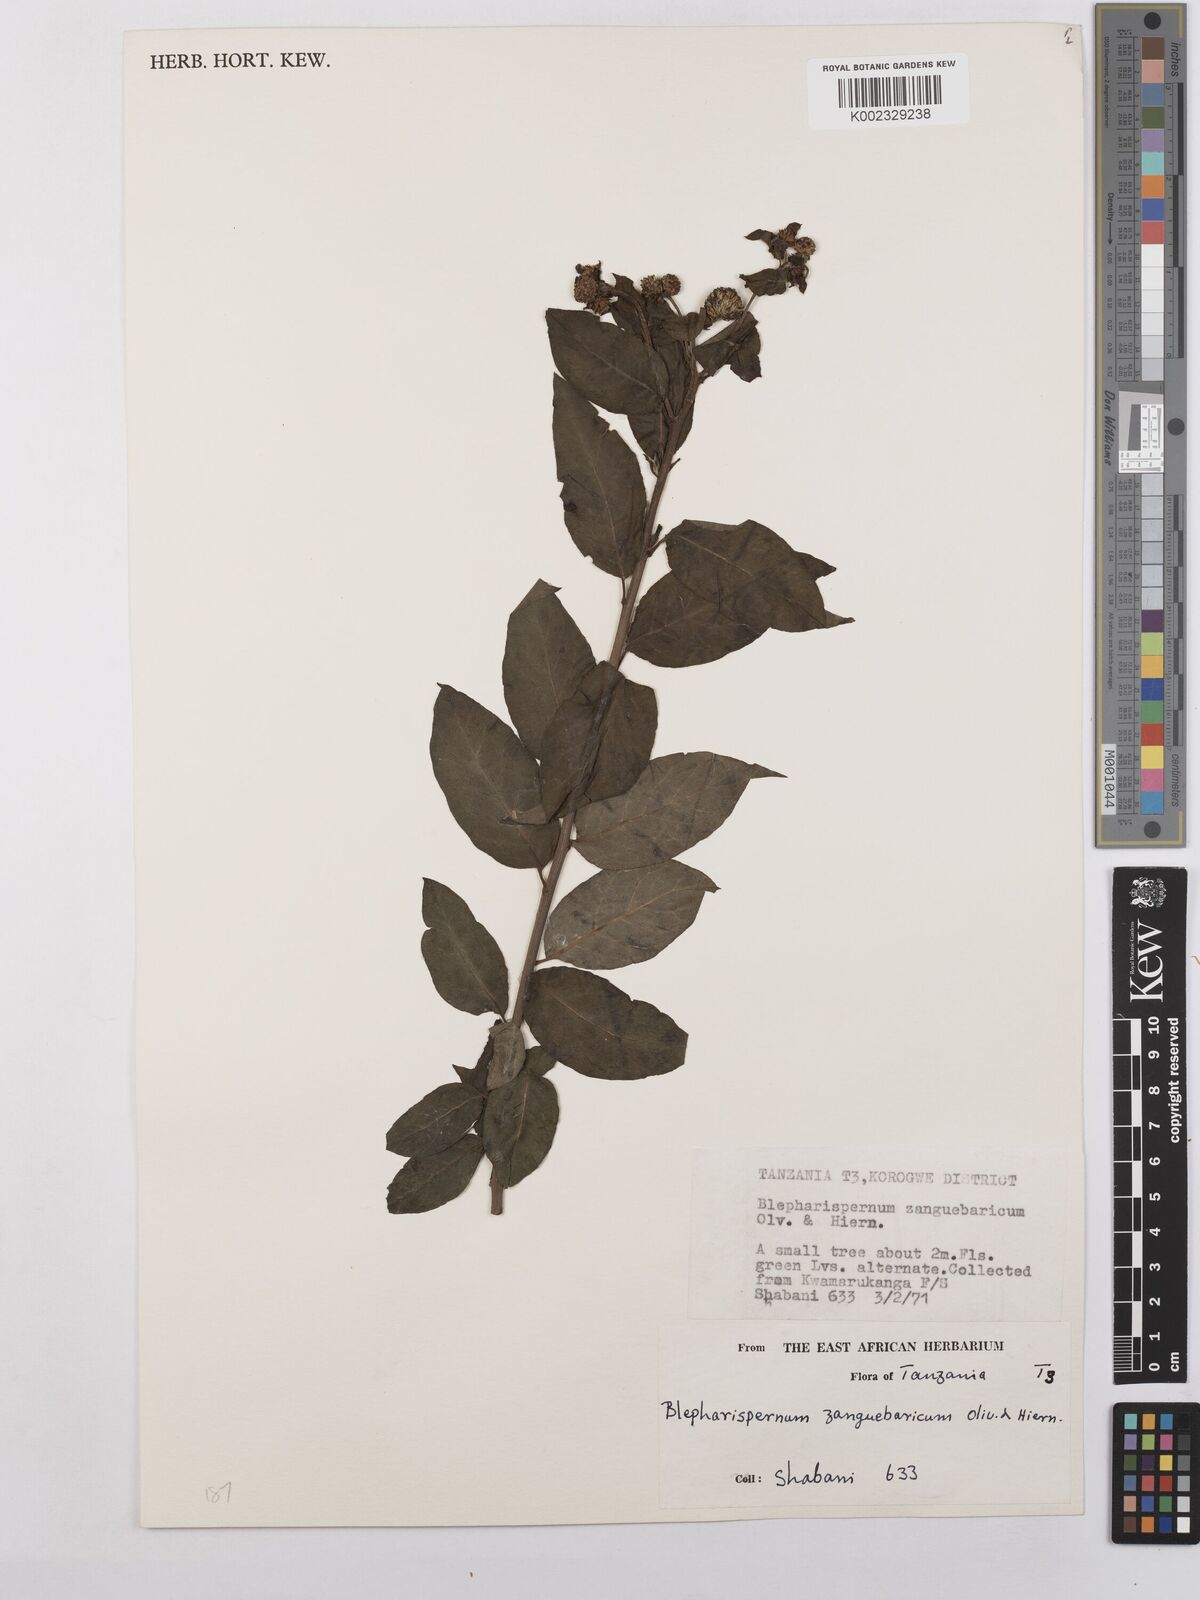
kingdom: Plantae
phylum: Tracheophyta
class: Magnoliopsida
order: Asterales
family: Asteraceae
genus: Blepharispermum
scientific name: Blepharispermum zanguebaricum
